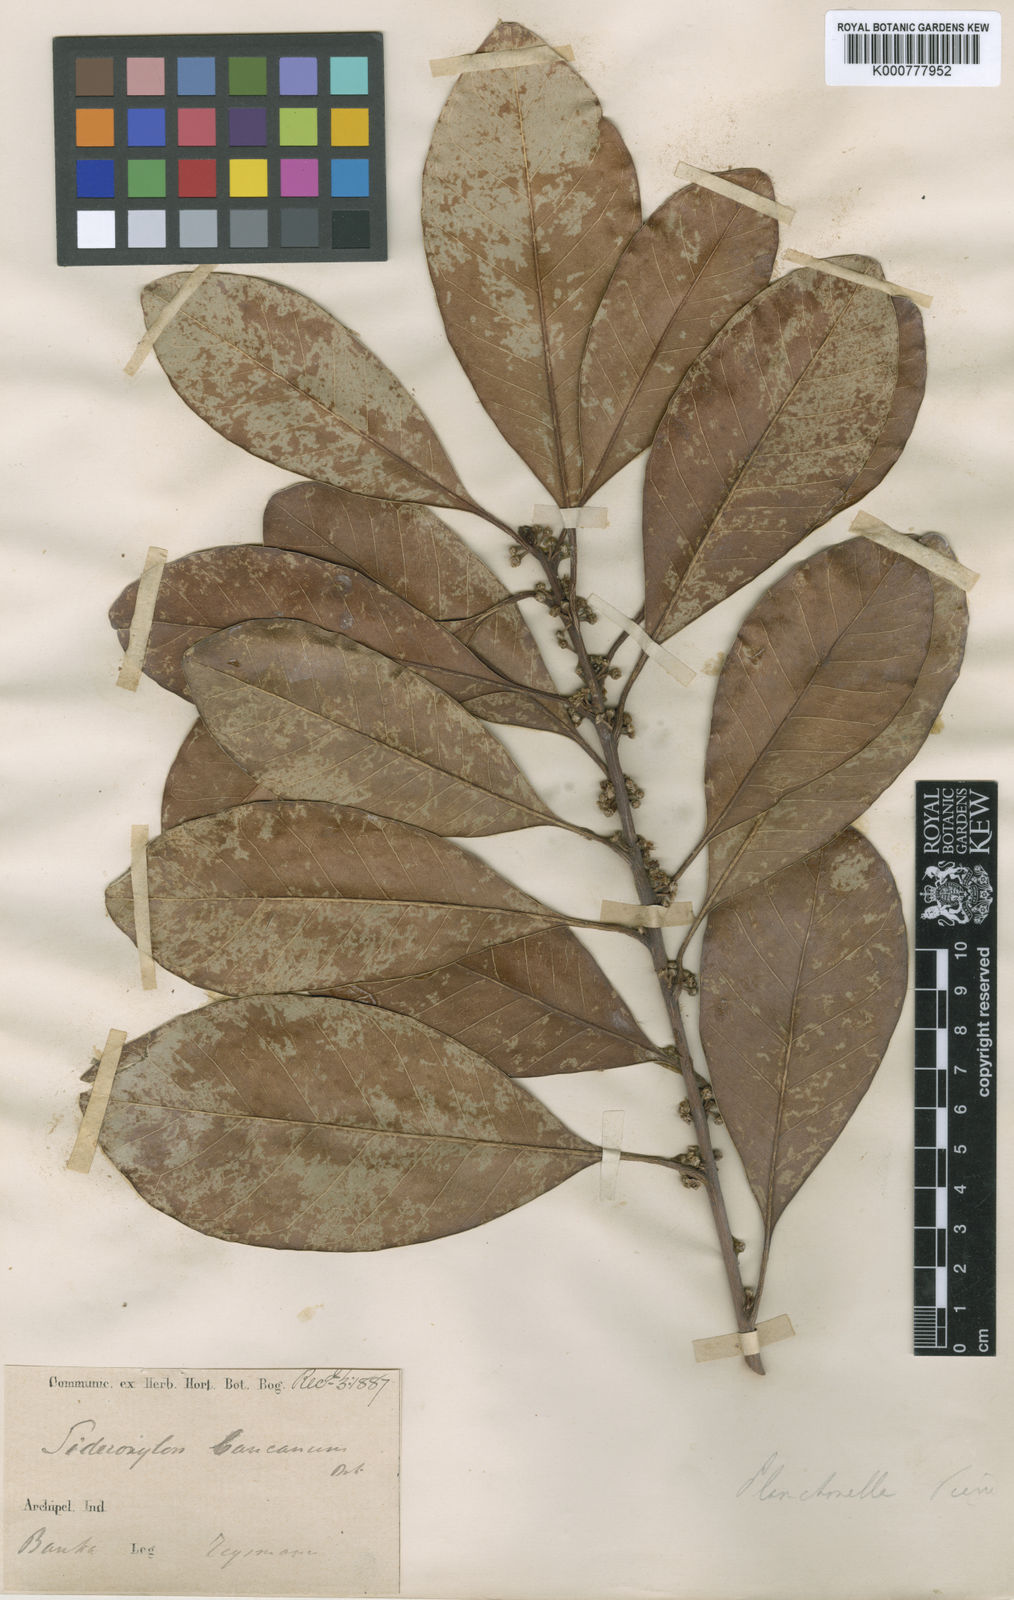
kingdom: Plantae
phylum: Tracheophyta
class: Magnoliopsida
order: Ericales
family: Sapotaceae
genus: Planchonella
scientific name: Planchonella obovata
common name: Black-ash
